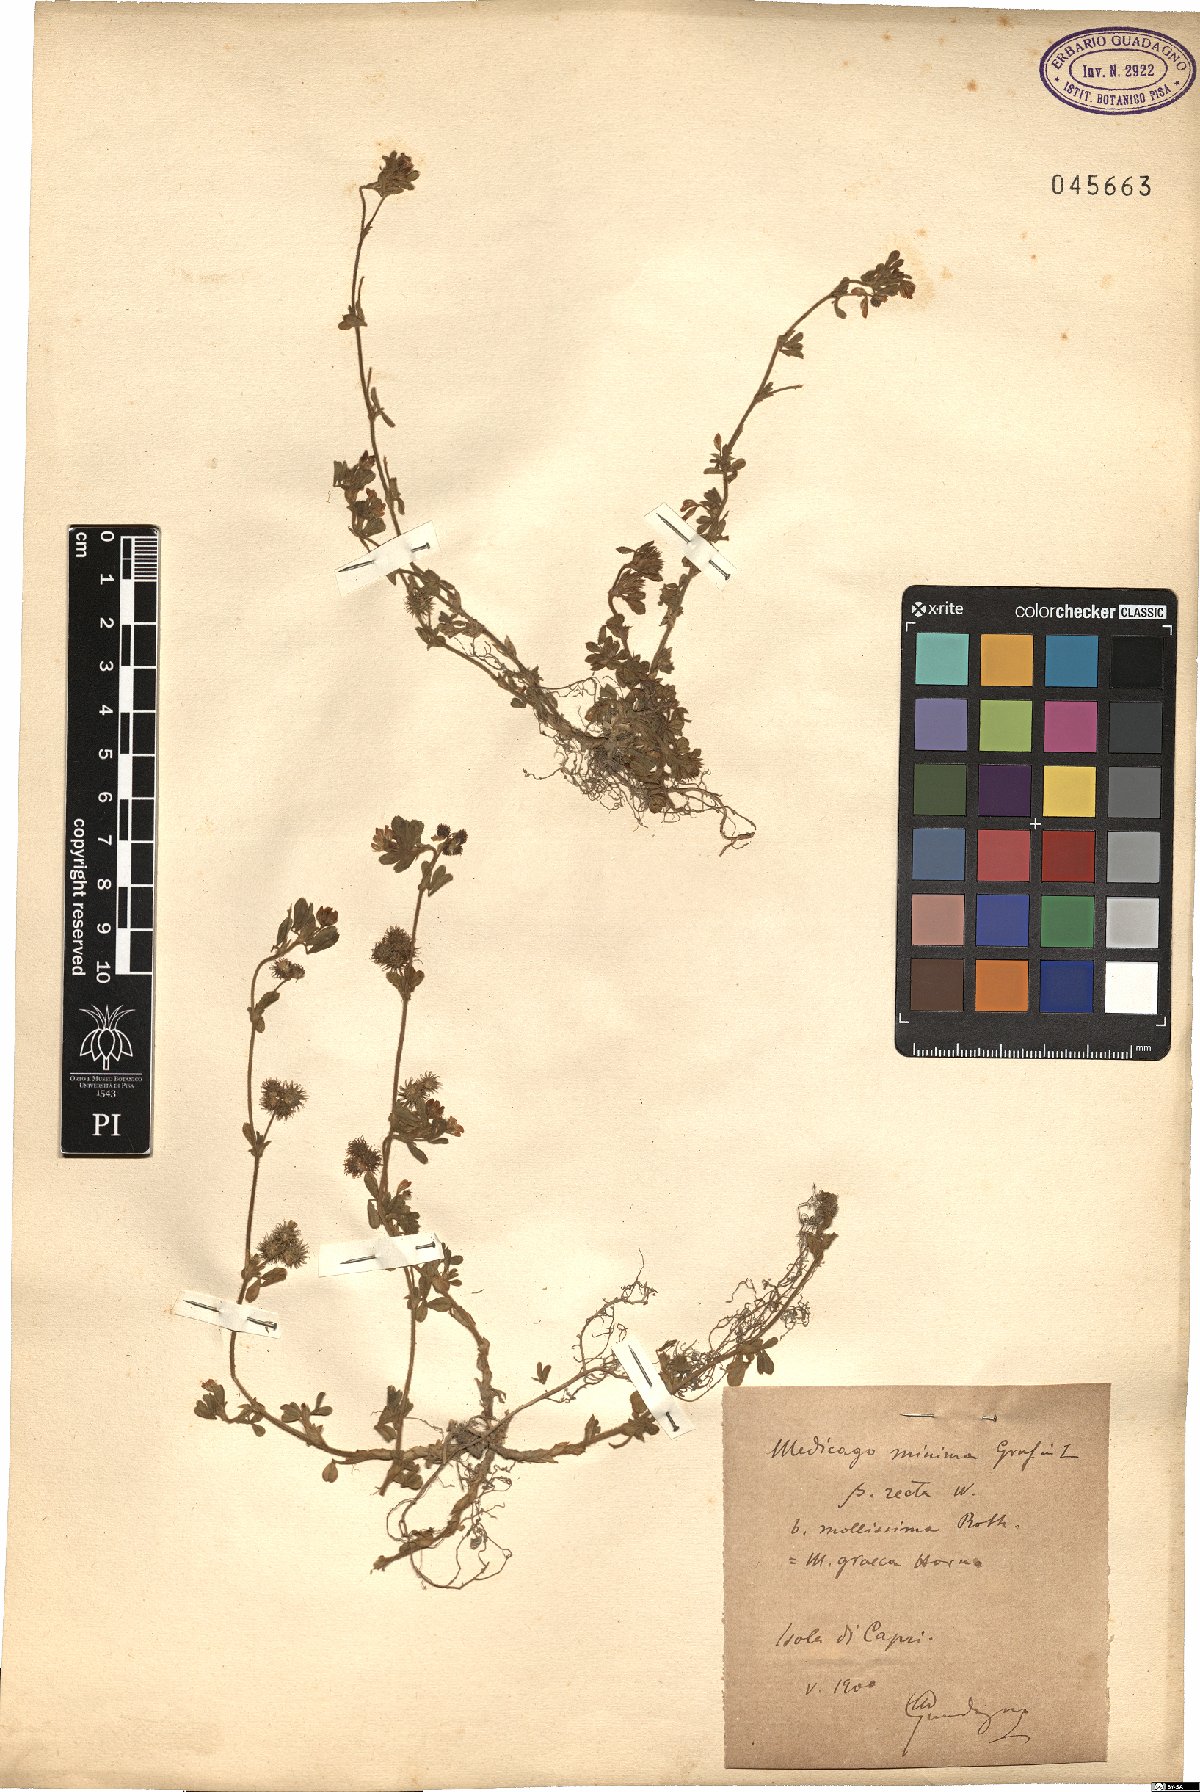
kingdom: Plantae
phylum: Tracheophyta
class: Magnoliopsida
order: Fabales
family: Fabaceae
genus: Medicago
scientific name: Medicago minima
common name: Little bur-clover
